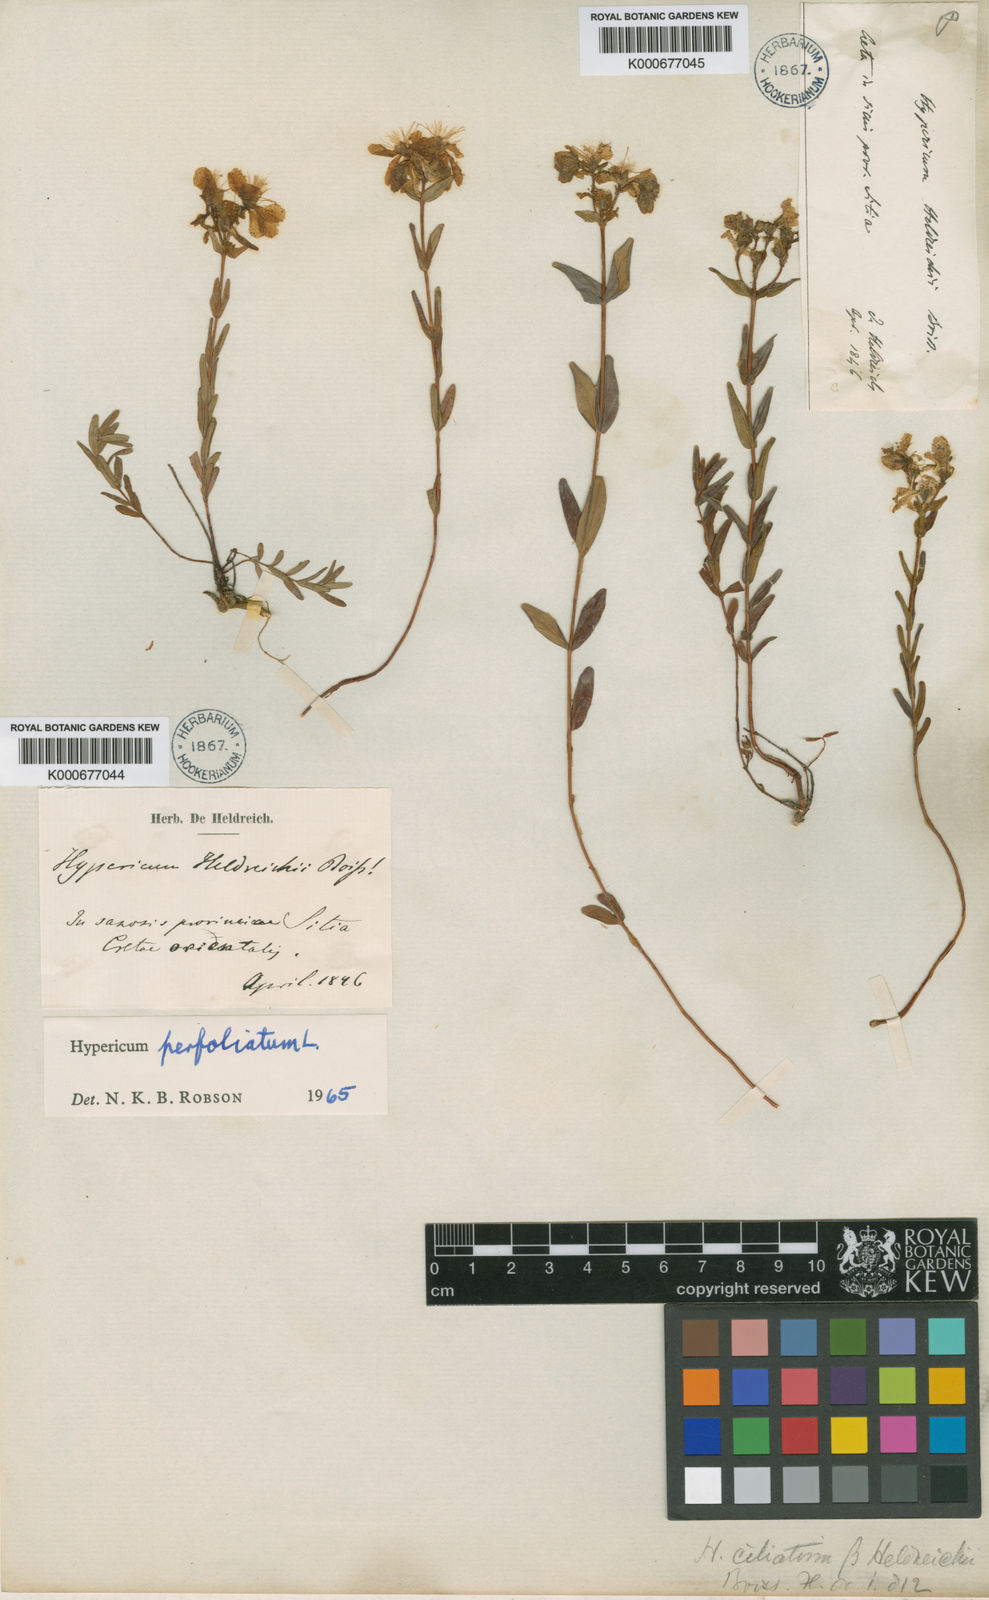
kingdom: Plantae
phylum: Tracheophyta
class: Magnoliopsida
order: Malpighiales
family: Hypericaceae
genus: Hypericum
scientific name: Hypericum perfoliatum
